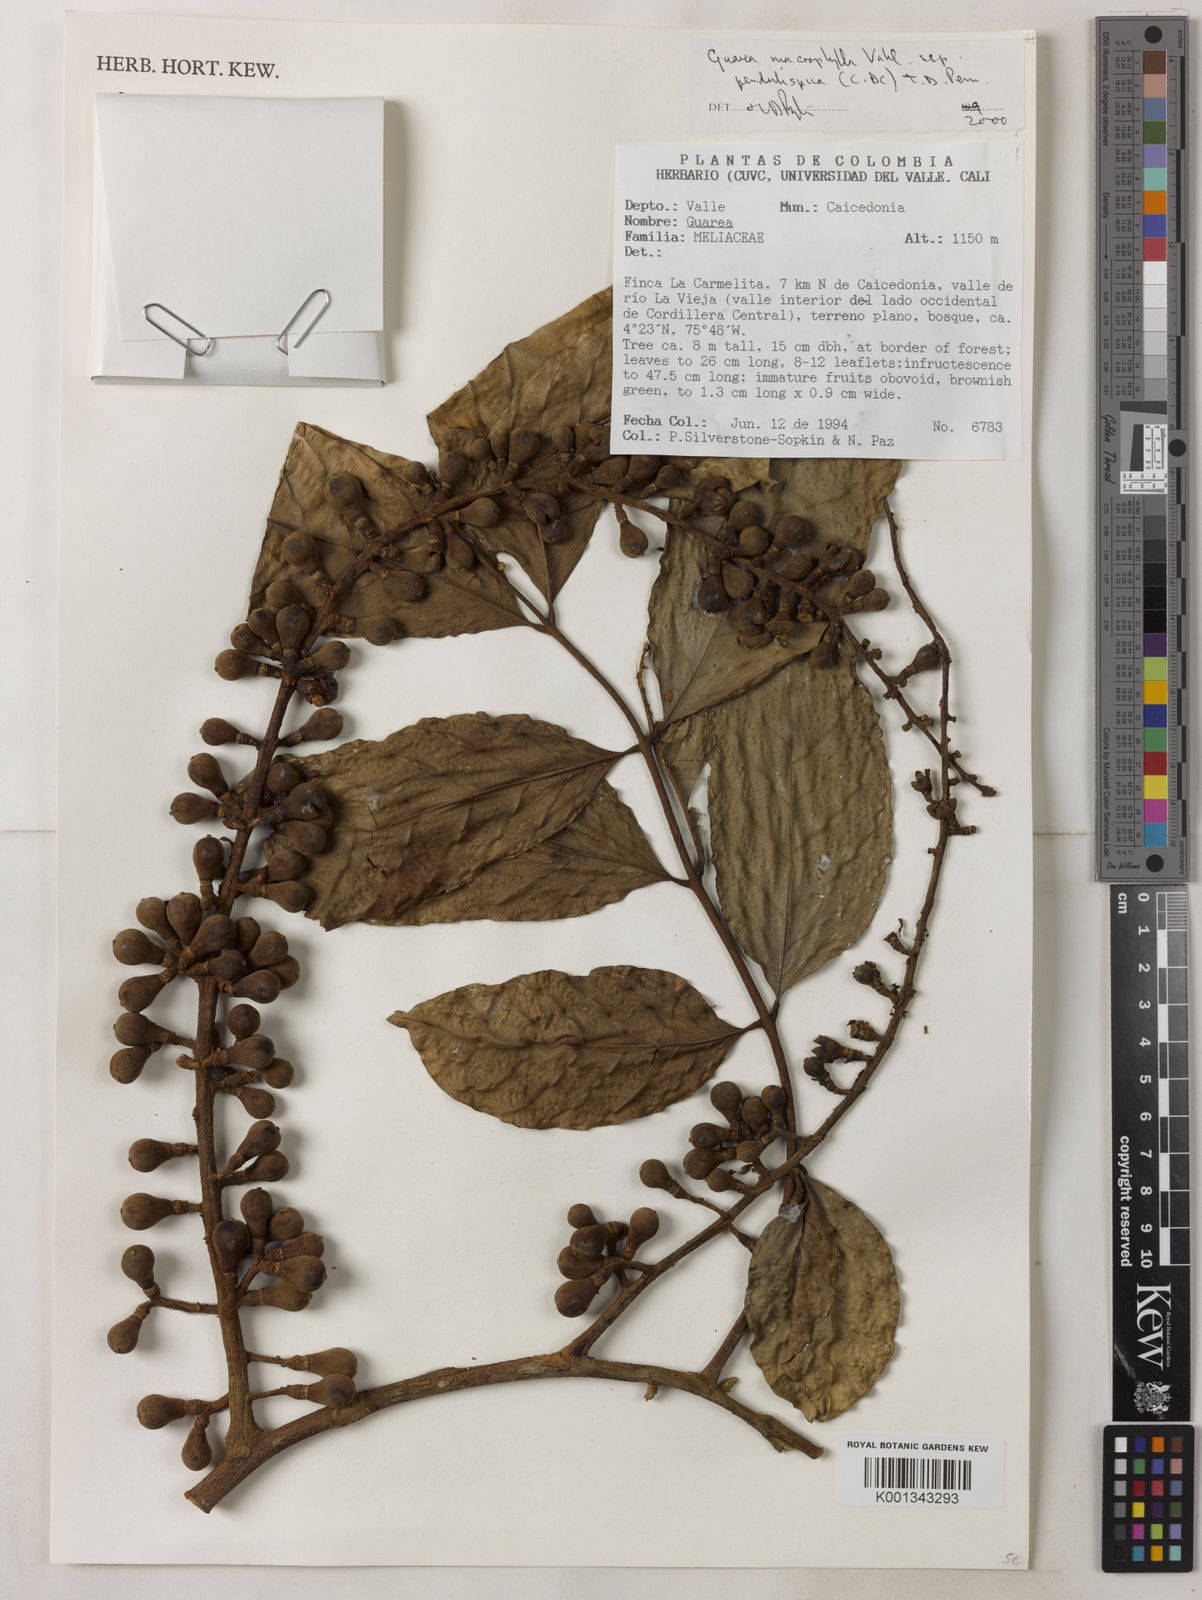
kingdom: Plantae
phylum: Tracheophyta
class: Magnoliopsida
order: Sapindales
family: Meliaceae
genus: Guarea
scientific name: Guarea macrophylla
